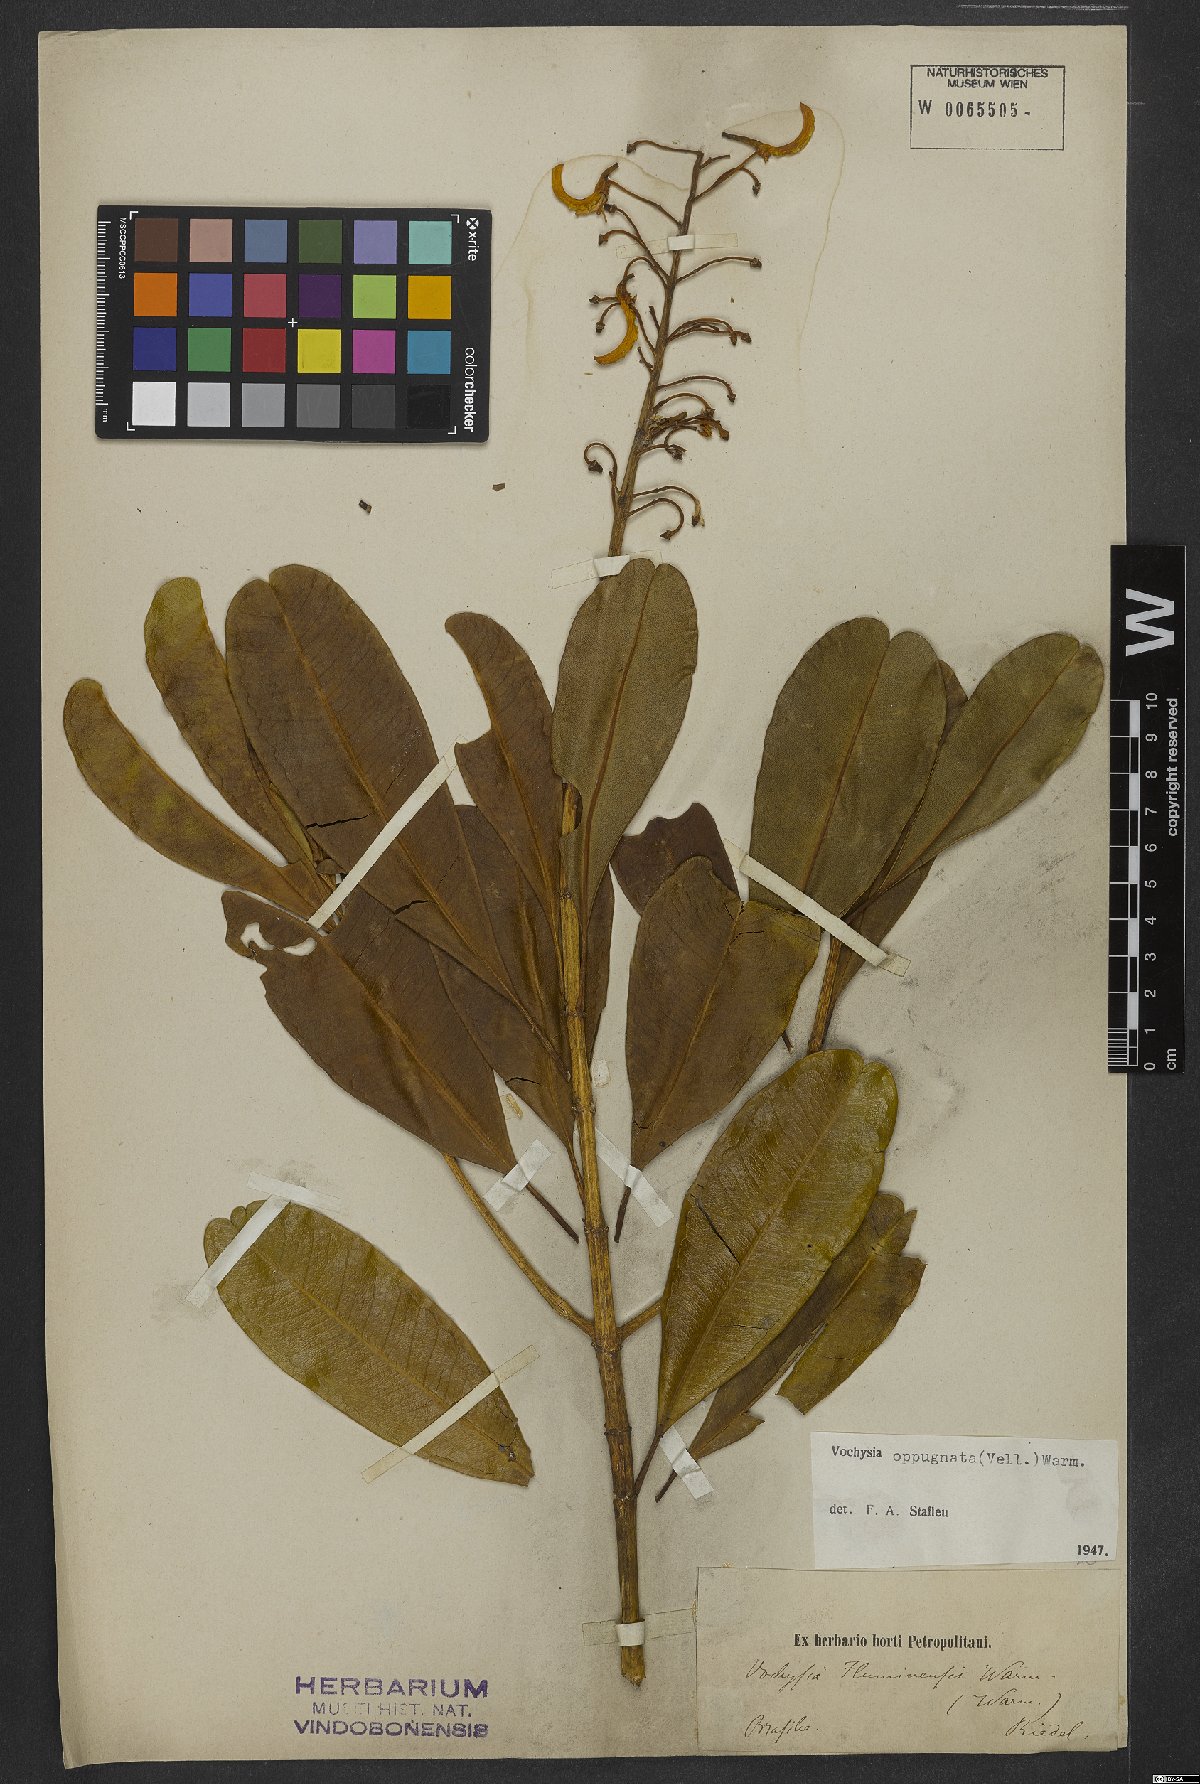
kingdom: Plantae
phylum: Tracheophyta
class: Magnoliopsida
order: Myrtales
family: Vochysiaceae
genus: Vochysia
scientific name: Vochysia oppugnata
